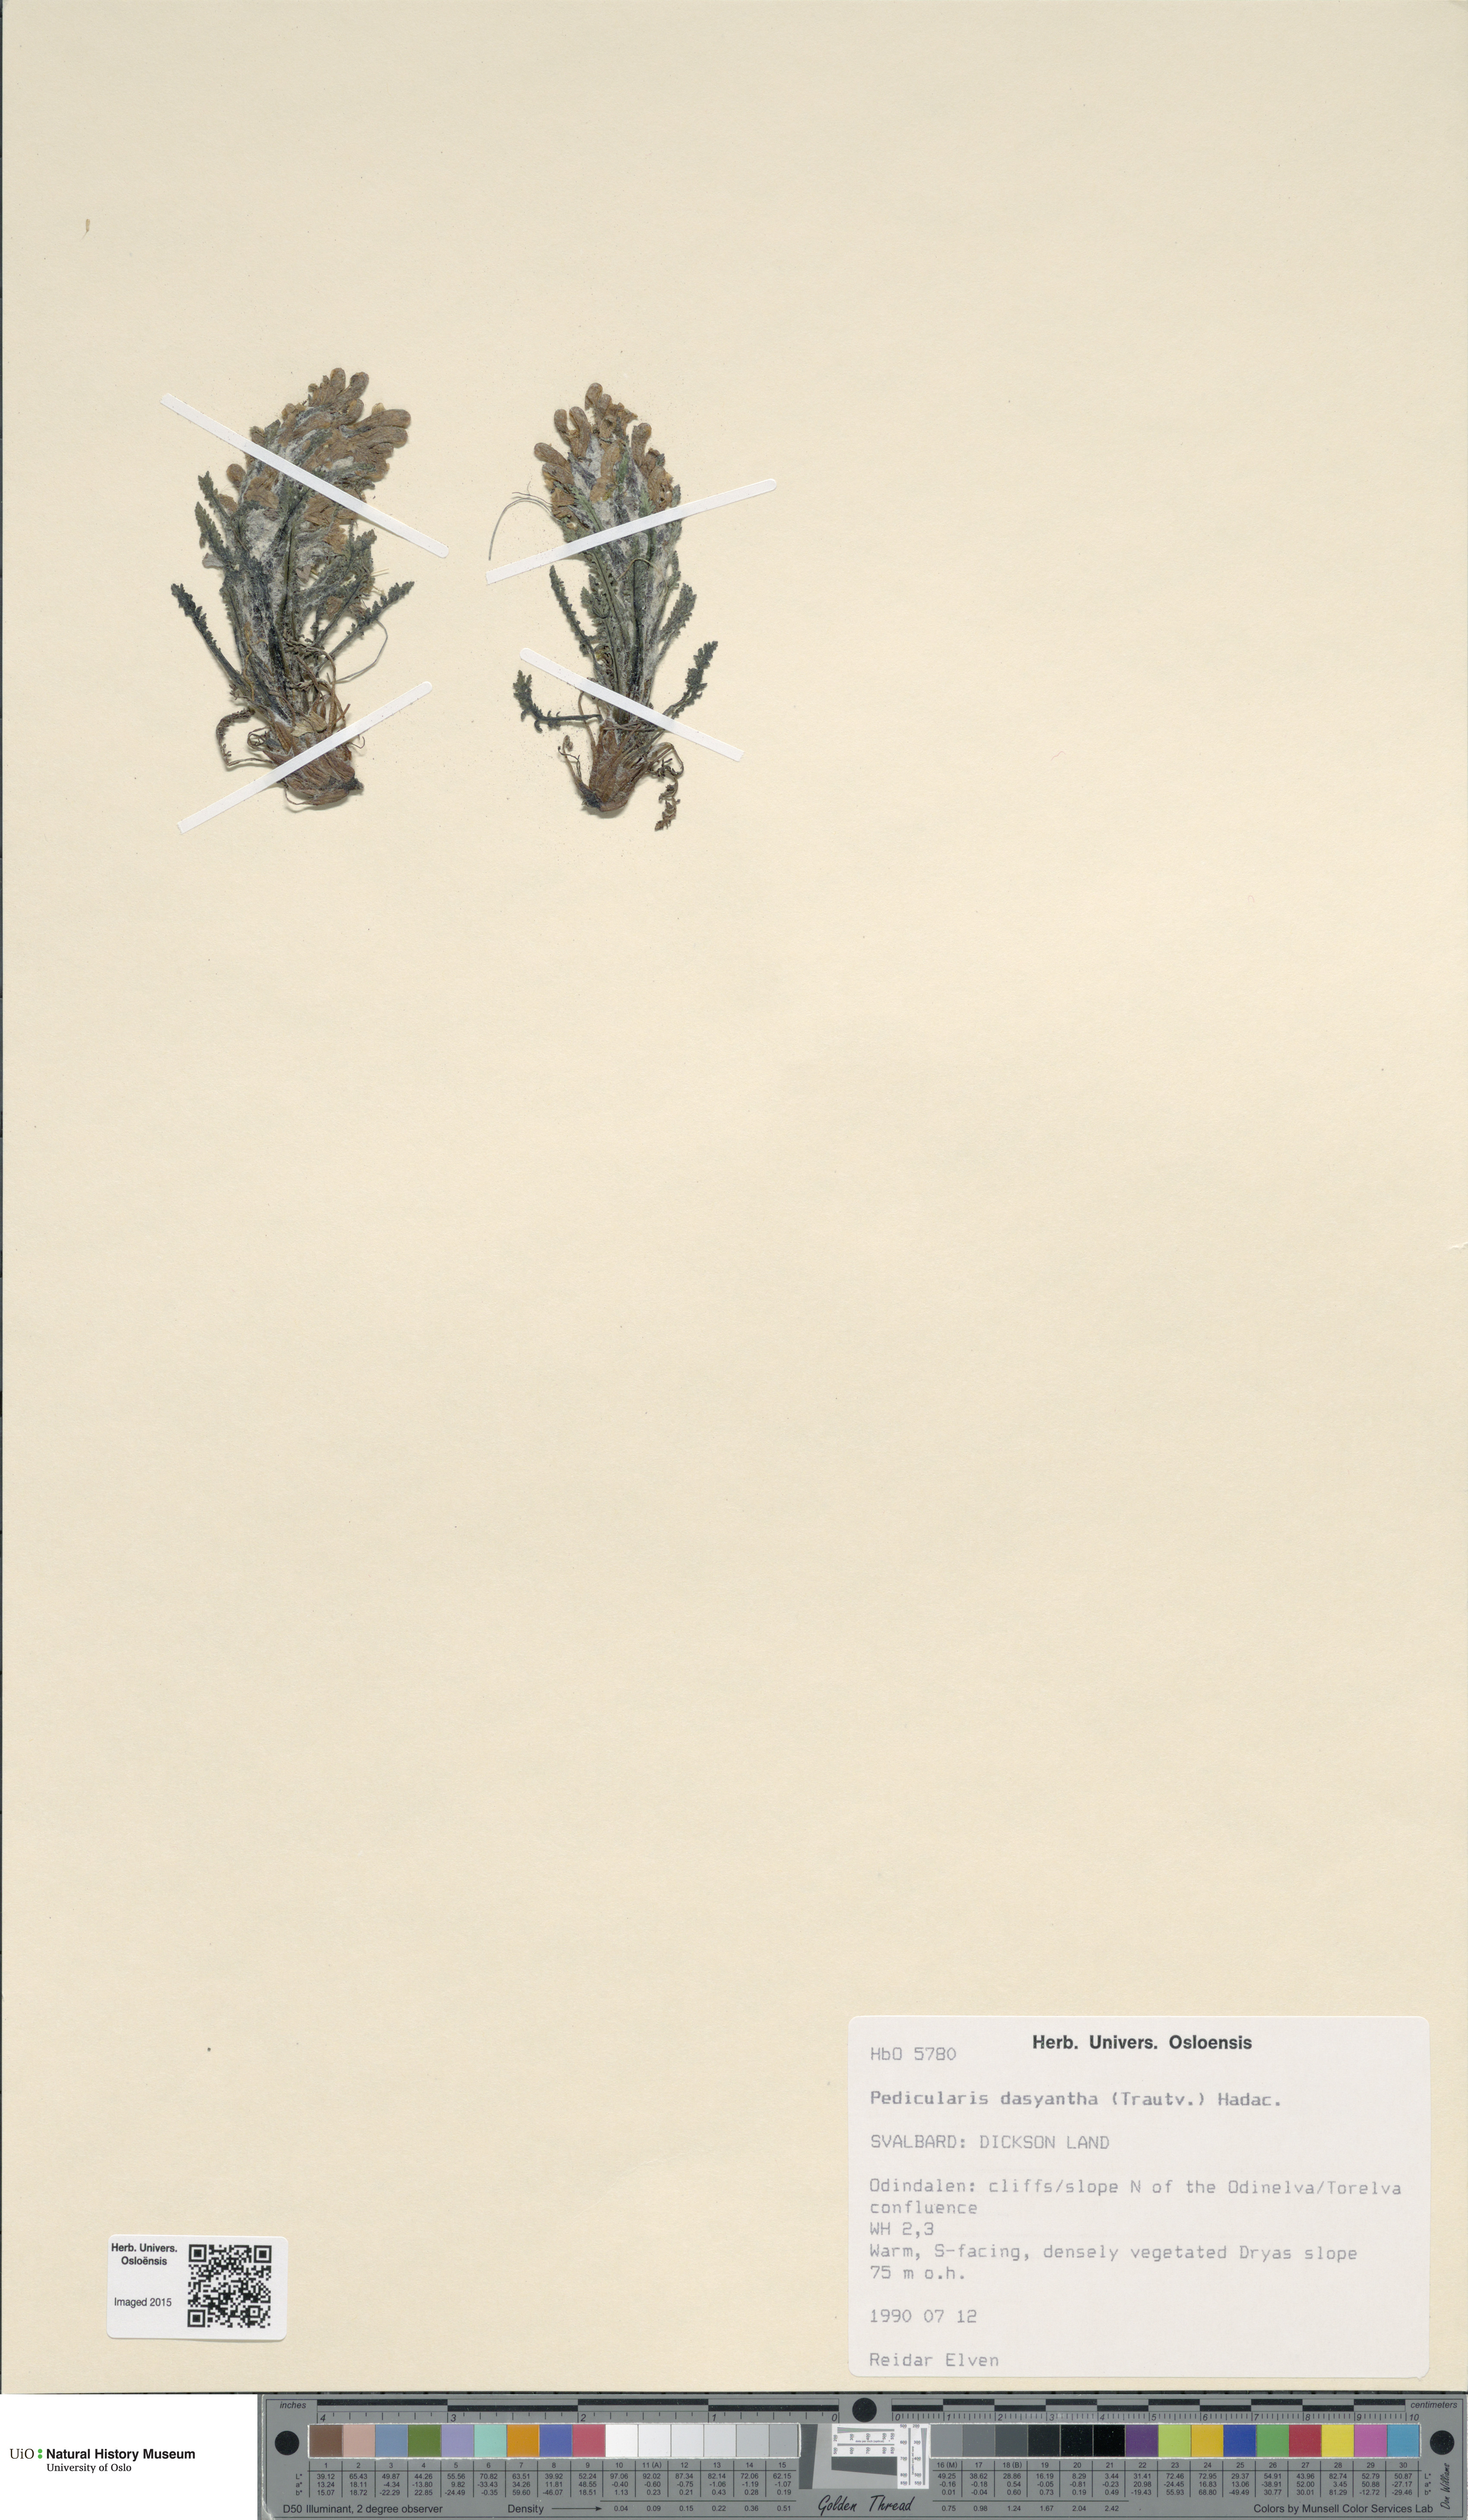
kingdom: Plantae
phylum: Tracheophyta
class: Magnoliopsida
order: Lamiales
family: Orobanchaceae
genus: Pedicularis
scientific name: Pedicularis dasyantha
